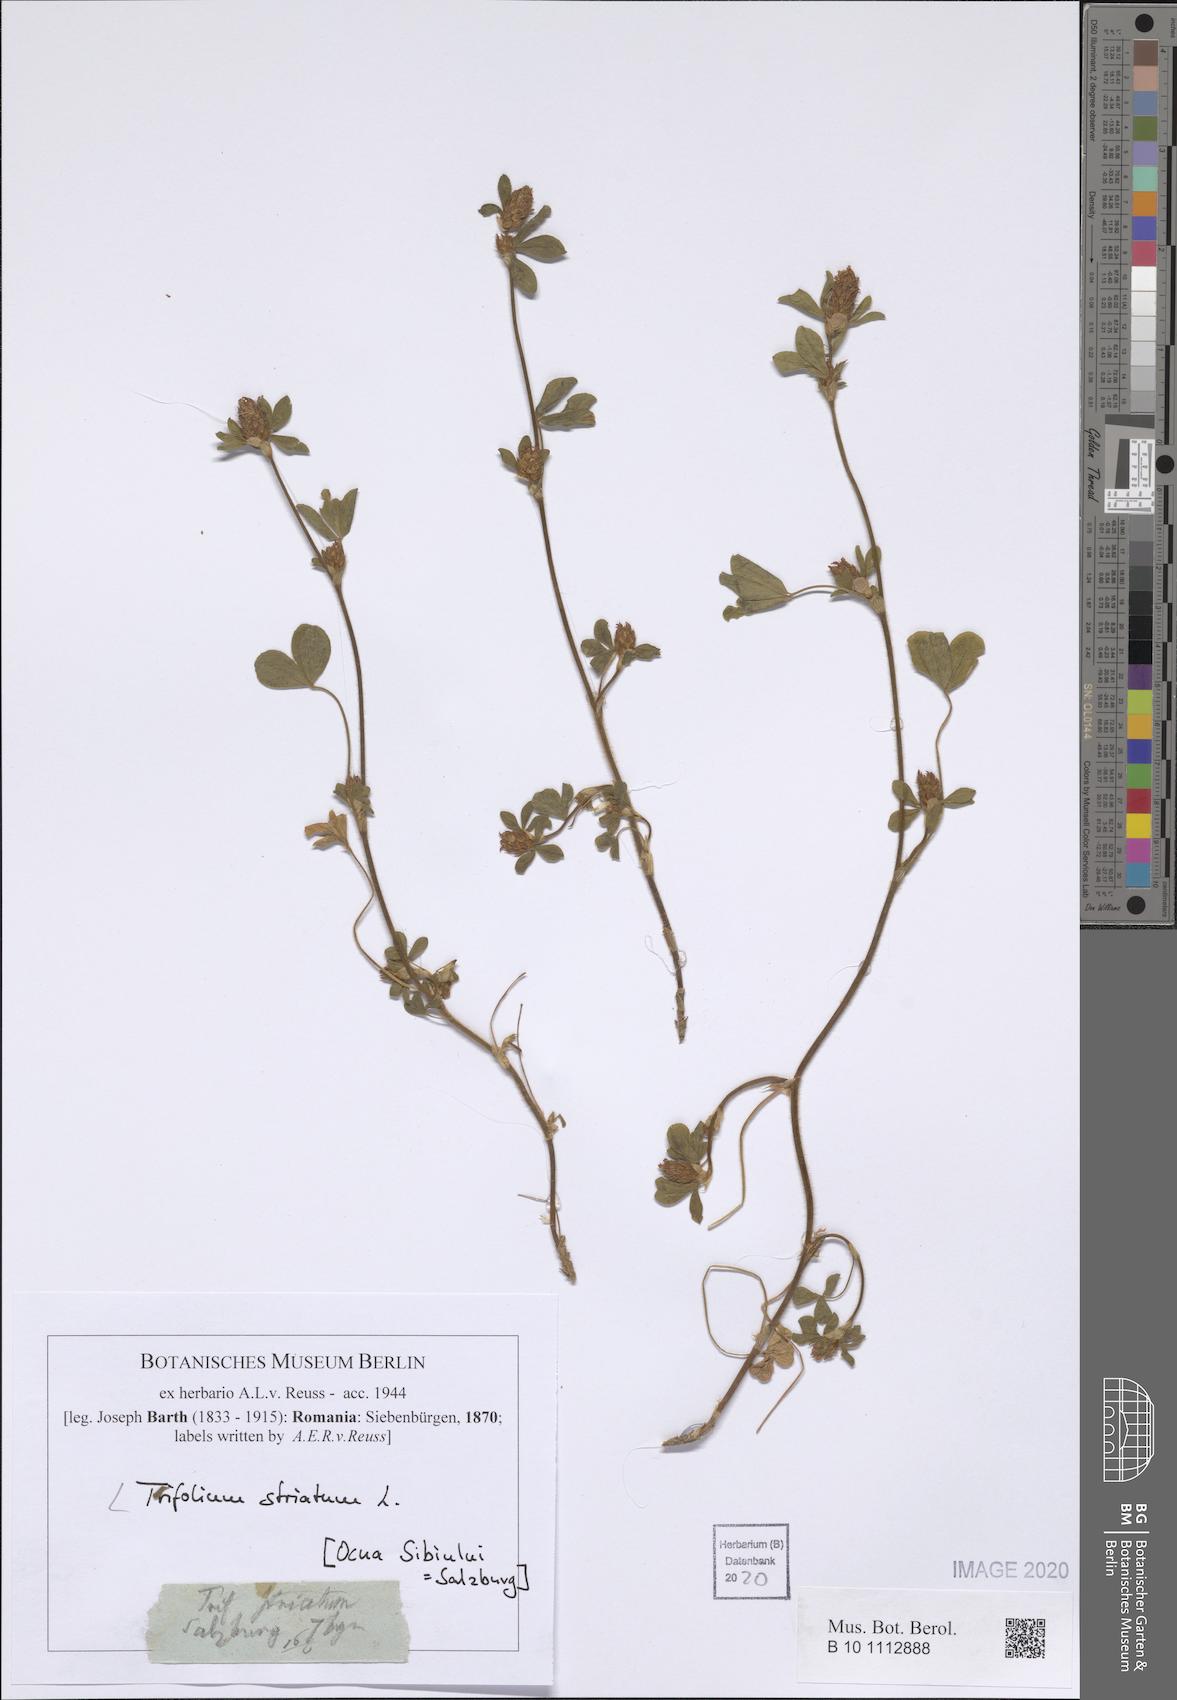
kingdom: Plantae
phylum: Tracheophyta
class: Magnoliopsida
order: Fabales
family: Fabaceae
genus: Trifolium
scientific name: Trifolium striatum
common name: Knotted clover
